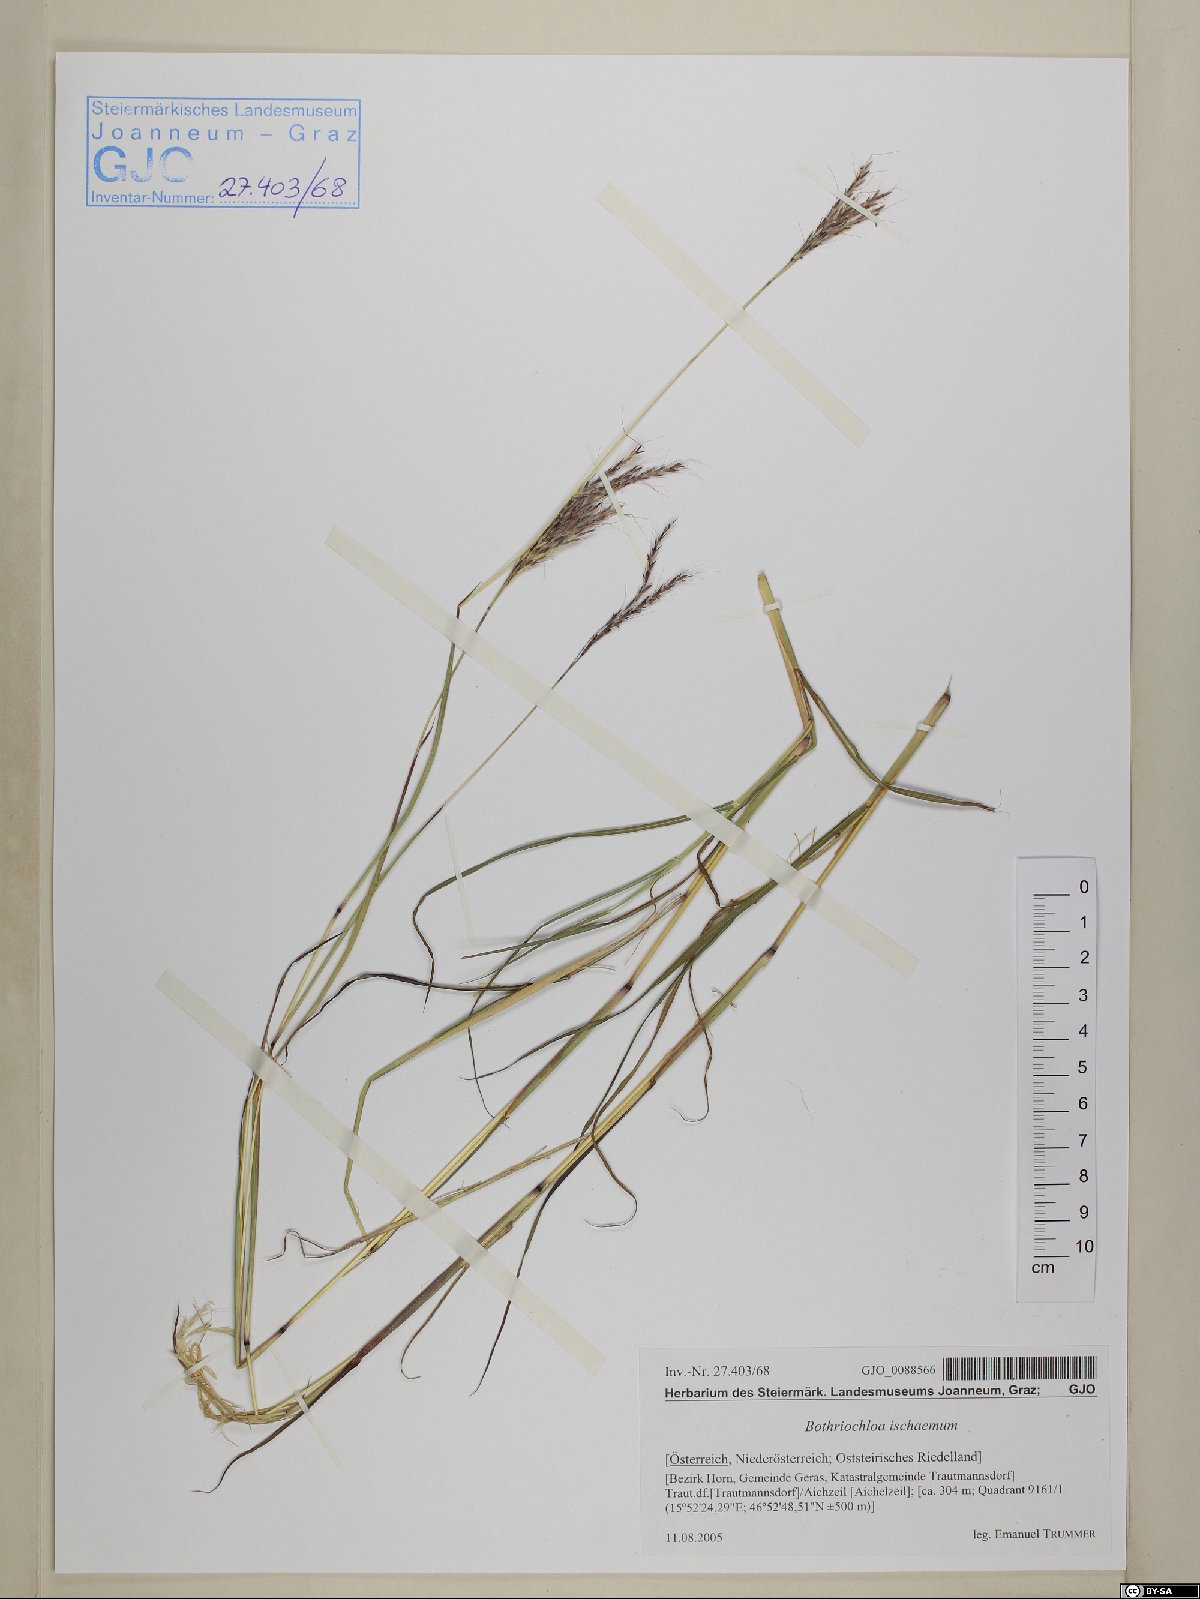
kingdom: Plantae
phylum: Tracheophyta
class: Liliopsida
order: Poales
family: Poaceae
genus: Bothriochloa
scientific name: Bothriochloa ischaemum
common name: Yellow bluestem
